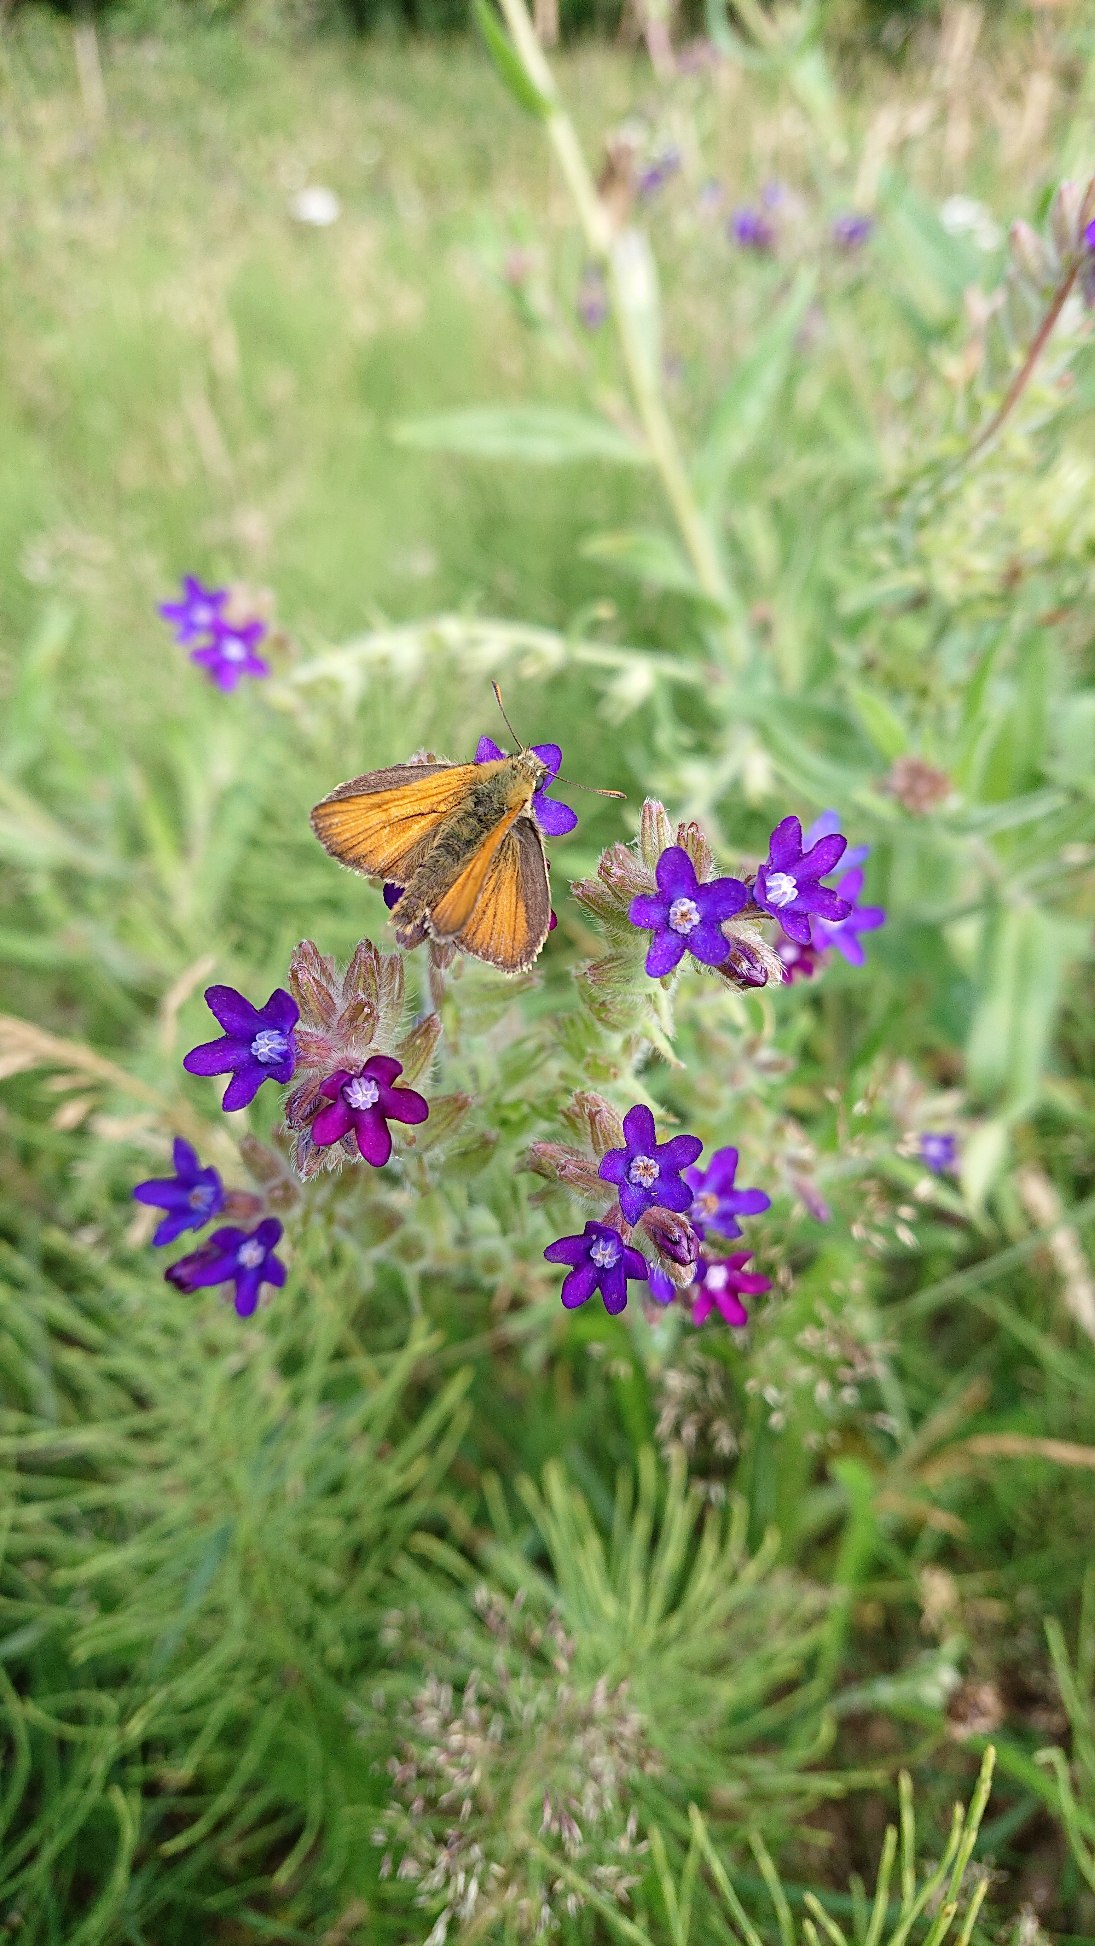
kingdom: Plantae
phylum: Tracheophyta
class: Magnoliopsida
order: Boraginales
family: Boraginaceae
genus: Anchusa
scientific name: Anchusa officinalis
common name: Læge-oksetunge
